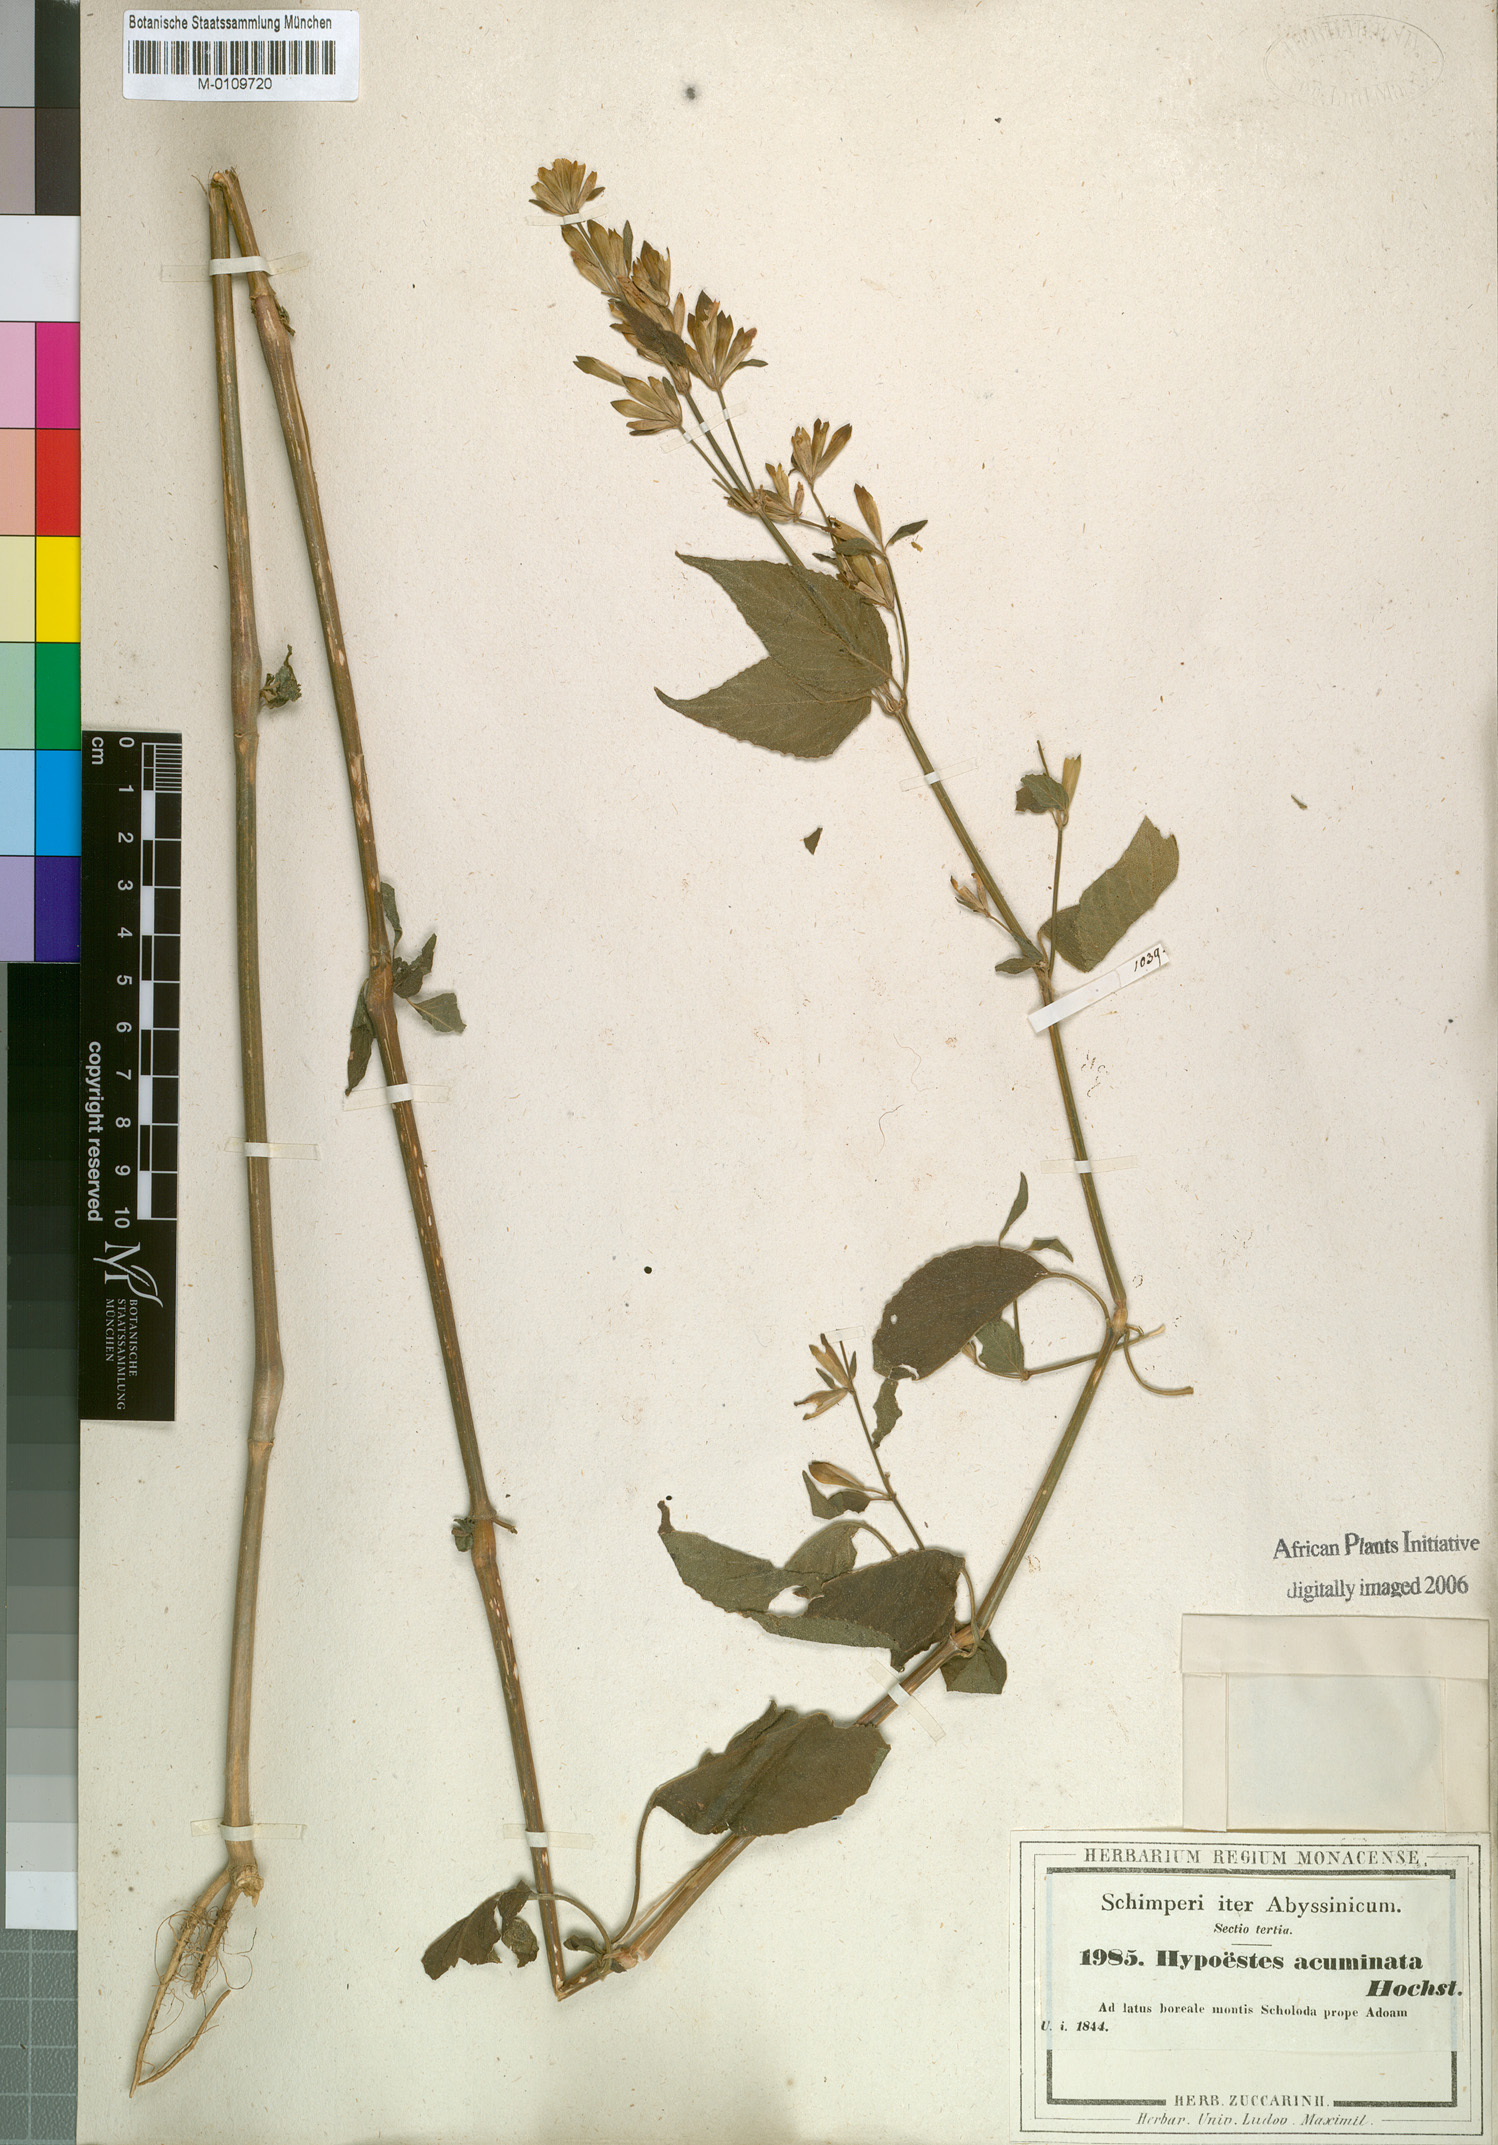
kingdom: Plantae
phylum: Tracheophyta
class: Magnoliopsida
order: Lamiales
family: Acanthaceae
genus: Hypoestes
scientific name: Hypoestes triflora
